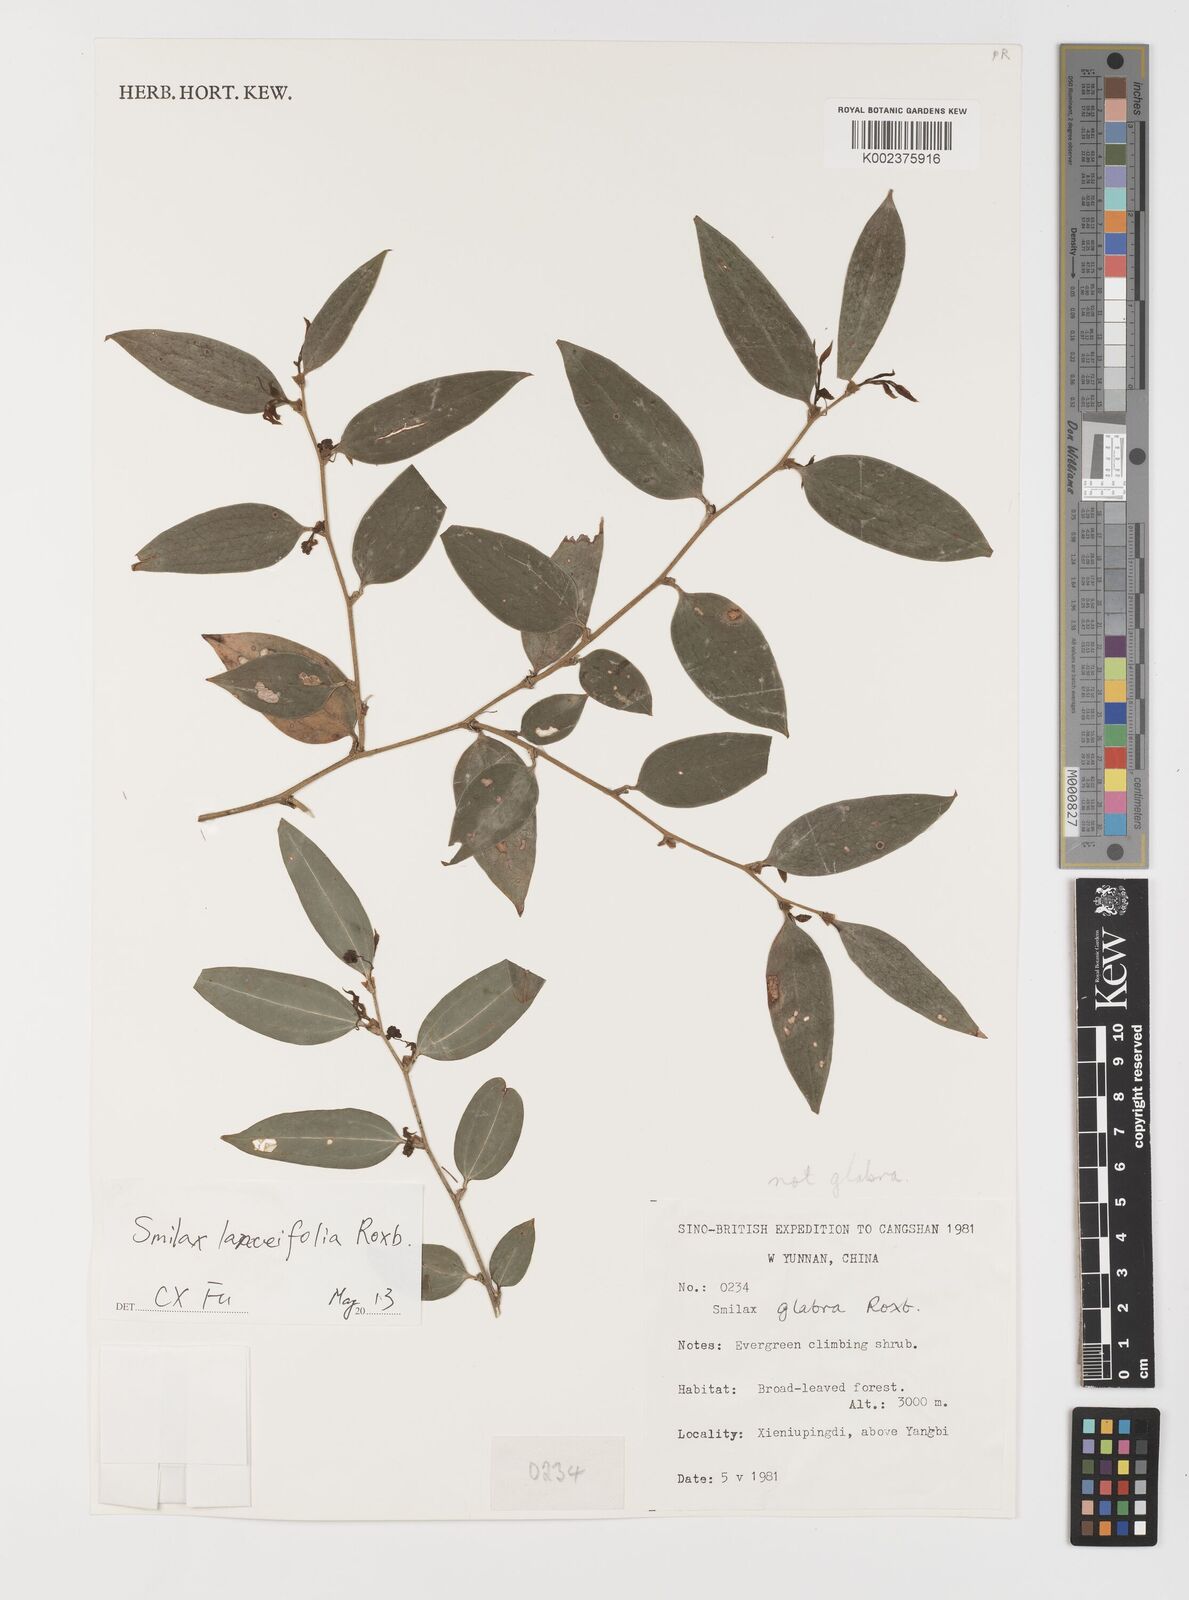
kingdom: Plantae
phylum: Tracheophyta
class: Liliopsida
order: Liliales
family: Smilacaceae
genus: Smilax
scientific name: Smilax lanceifolia
